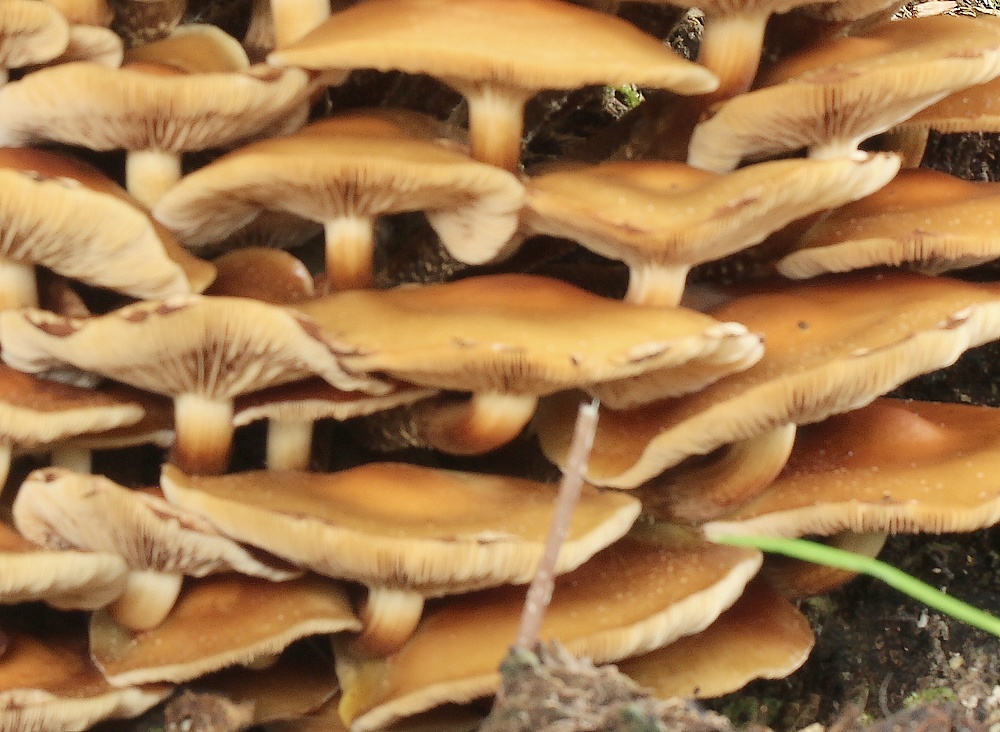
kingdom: Fungi
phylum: Basidiomycota
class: Agaricomycetes
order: Agaricales
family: Strophariaceae
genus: Kuehneromyces
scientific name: Kuehneromyces mutabilis
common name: foranderlig skælhat
